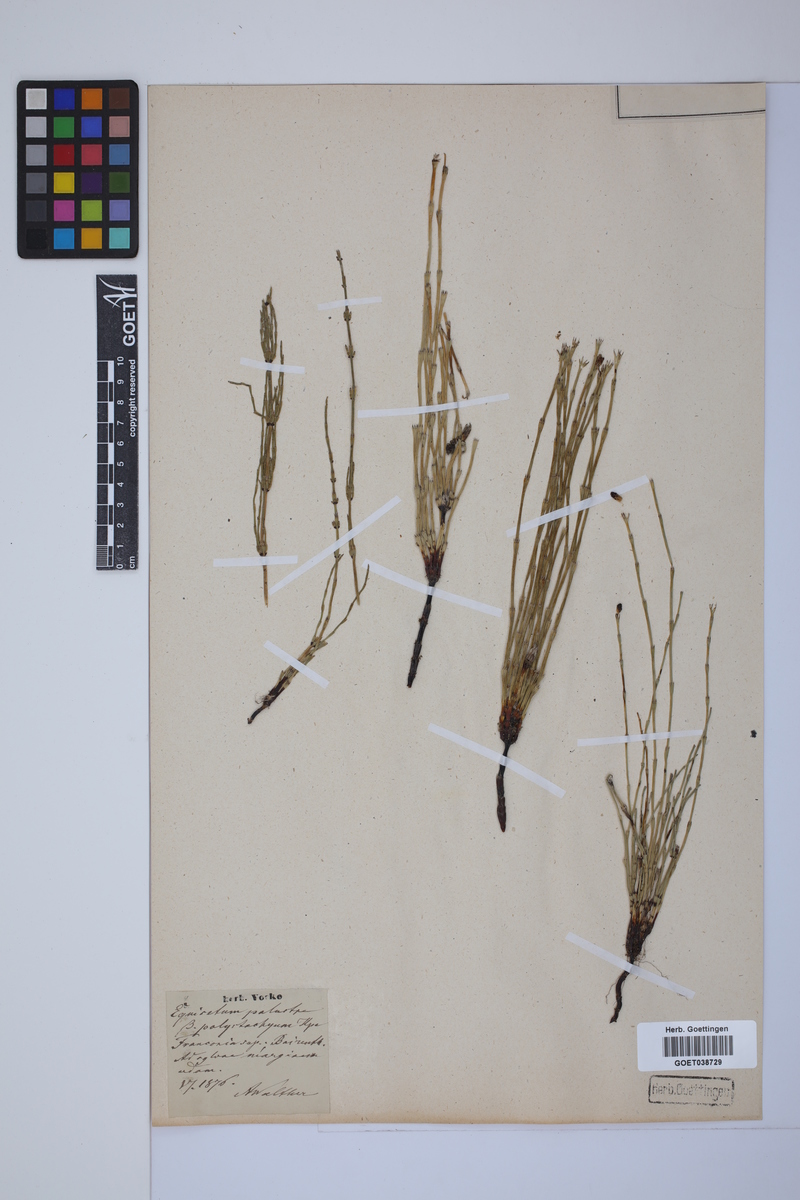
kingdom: Plantae
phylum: Tracheophyta
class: Polypodiopsida
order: Equisetales
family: Equisetaceae
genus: Equisetum
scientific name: Equisetum palustre
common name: Marsh horsetail
